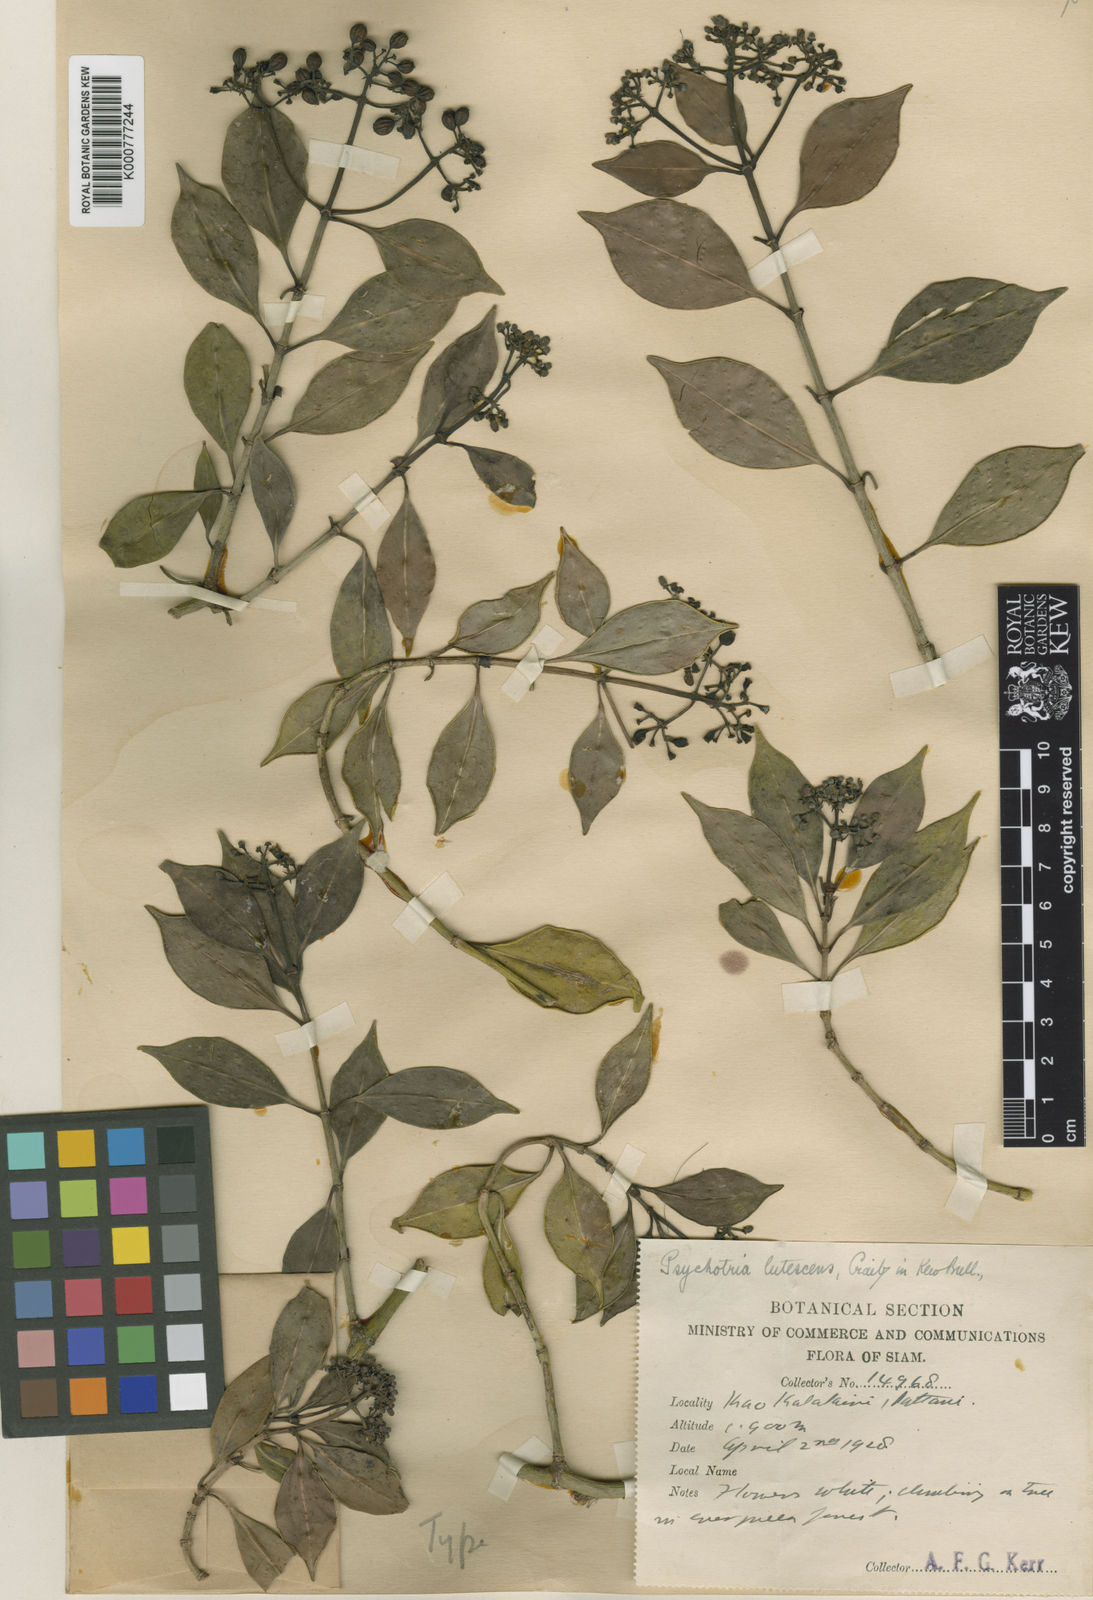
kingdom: Plantae
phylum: Tracheophyta
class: Magnoliopsida
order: Gentianales
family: Rubiaceae
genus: Psychotria
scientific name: Psychotria lutescens
